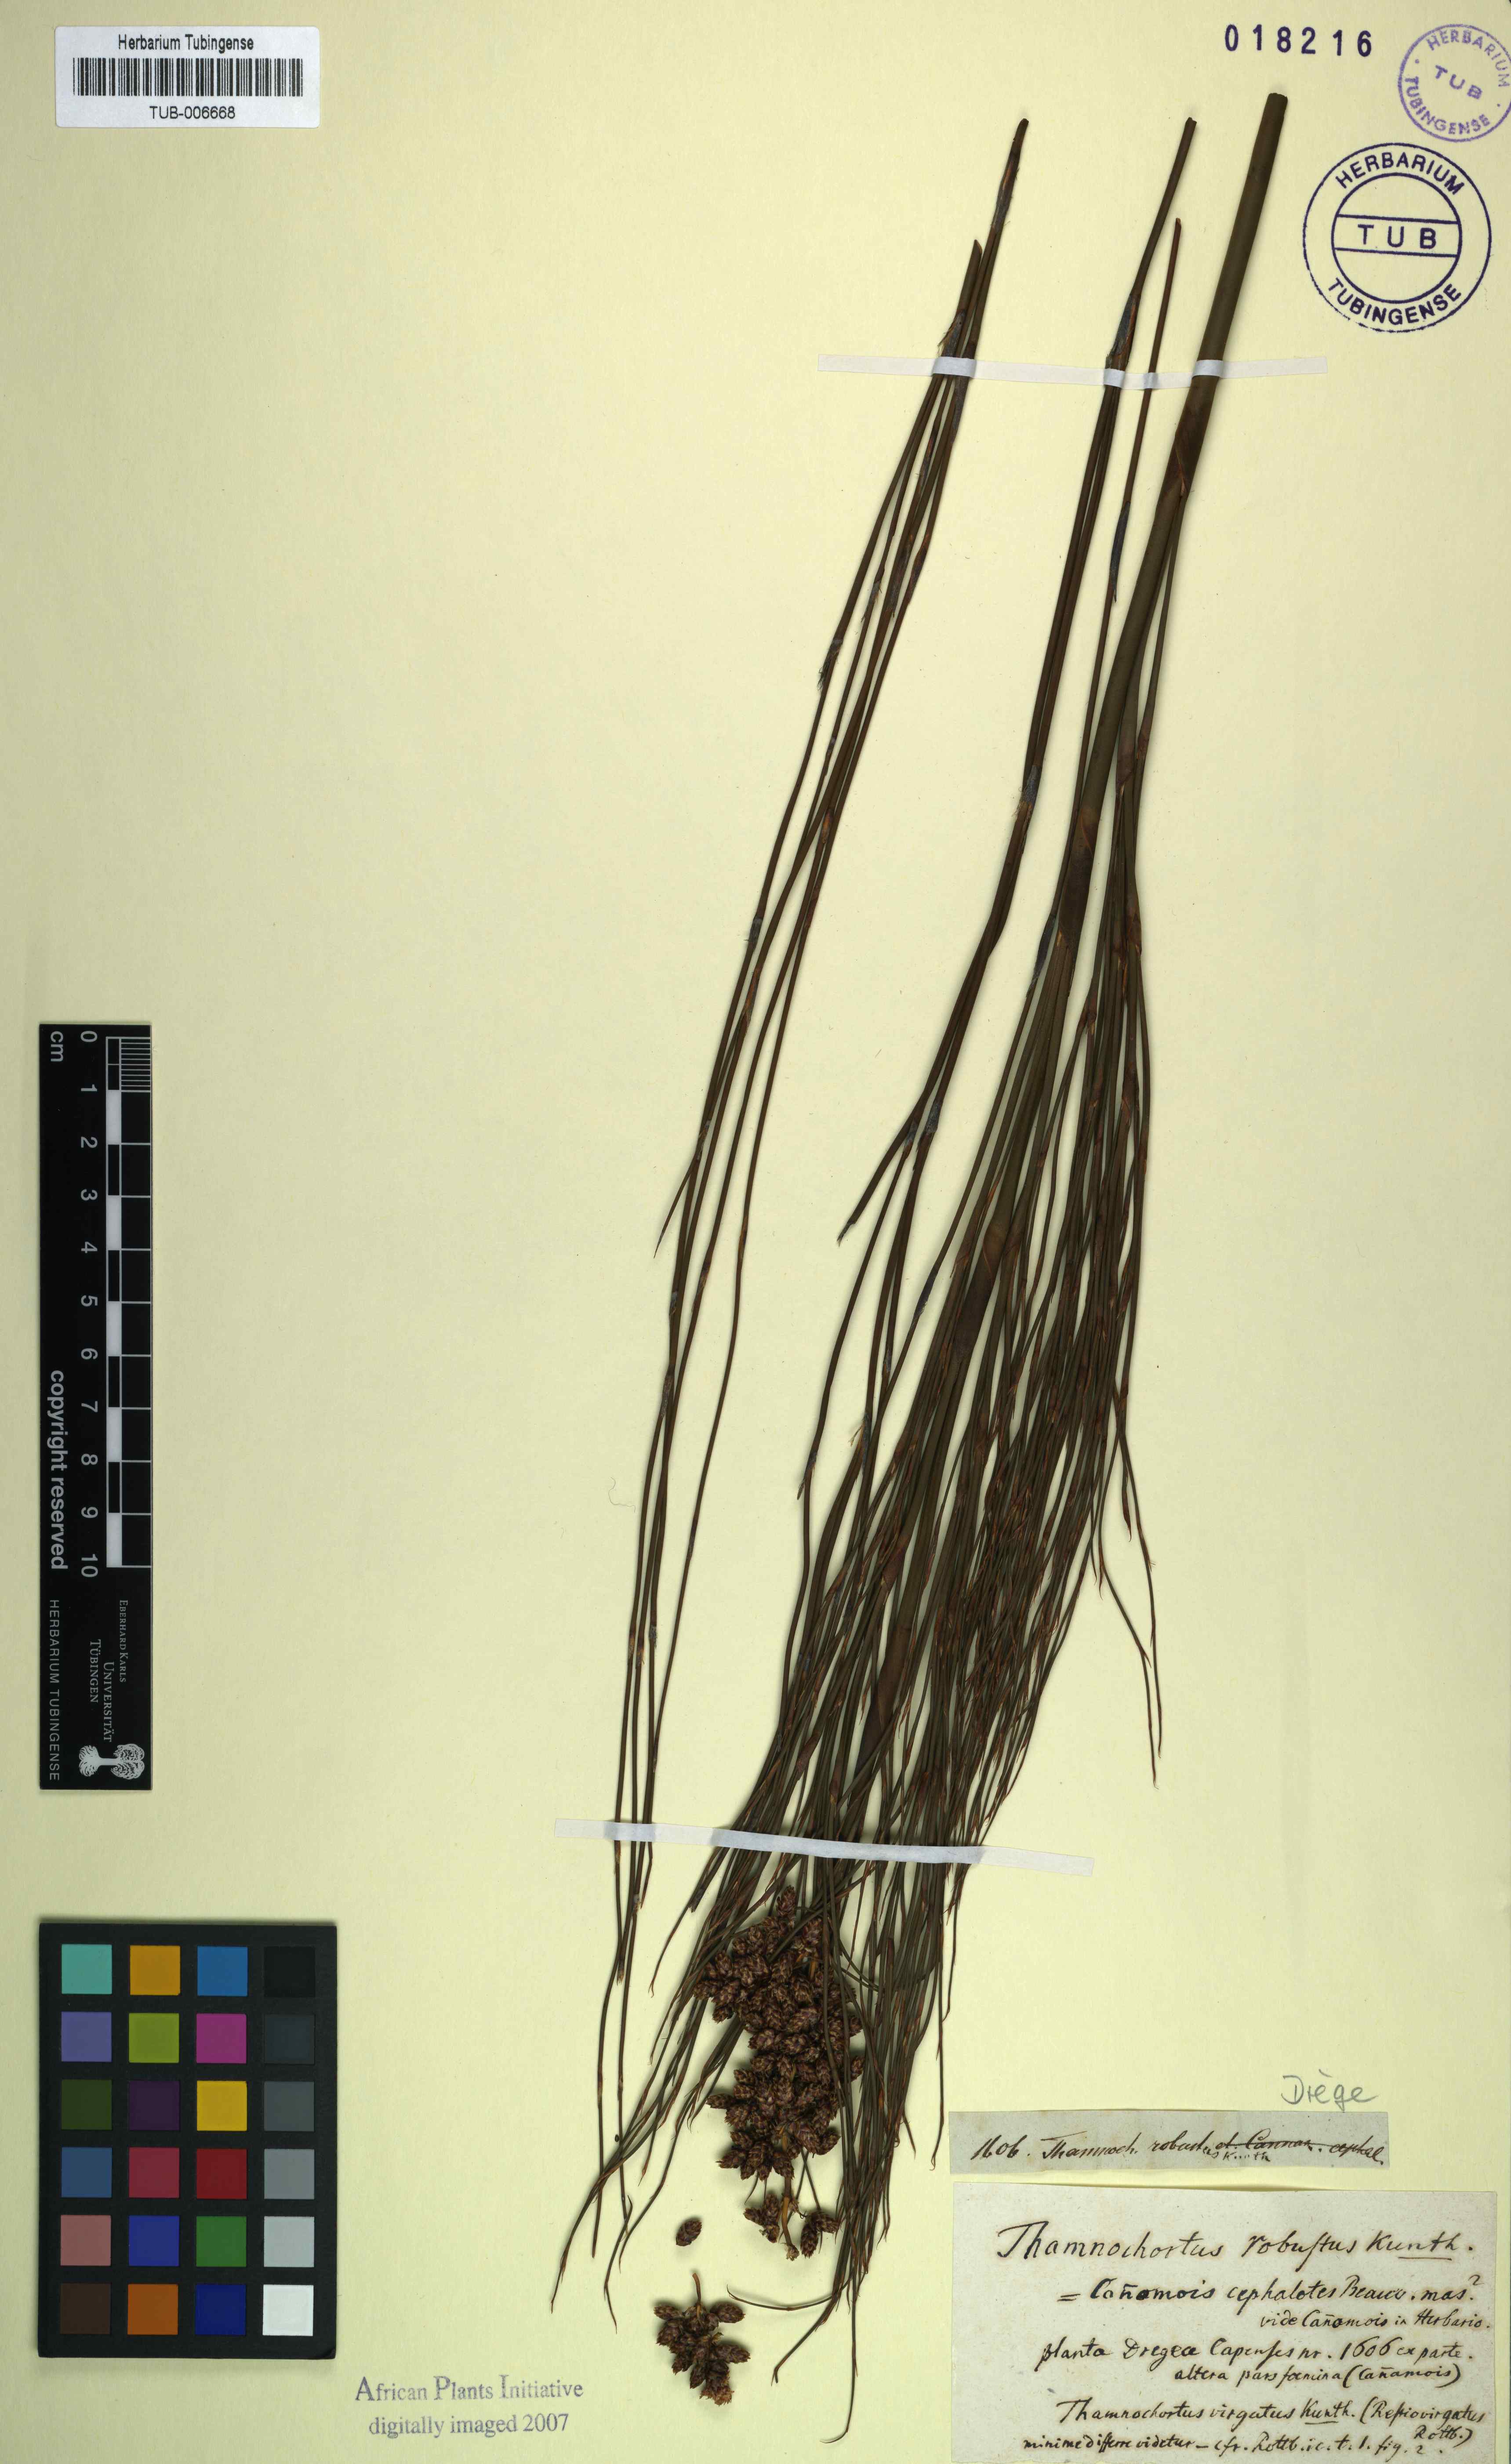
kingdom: Plantae
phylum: Tracheophyta
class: Liliopsida
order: Poales
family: Restionaceae
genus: Cannomois
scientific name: Cannomois virgata
